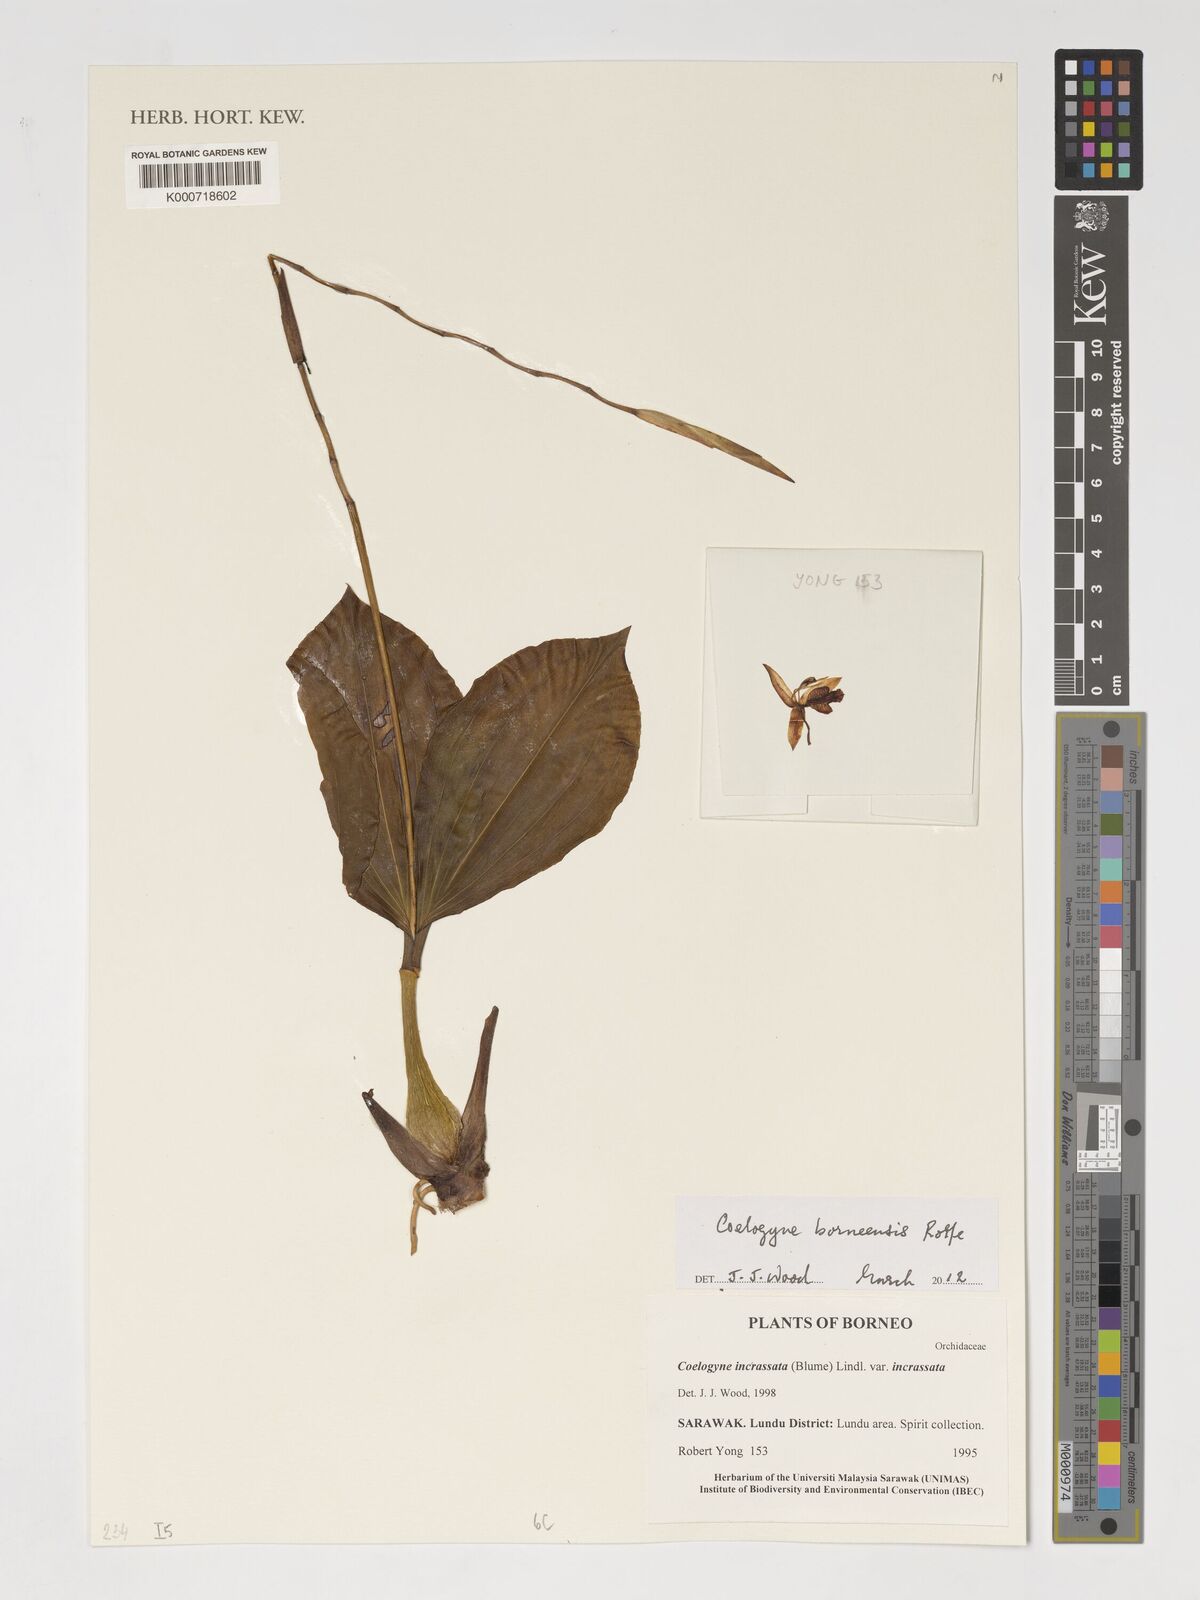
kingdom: Plantae
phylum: Tracheophyta
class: Liliopsida
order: Asparagales
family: Orchidaceae
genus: Coelogyne
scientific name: Coelogyne borneensis
